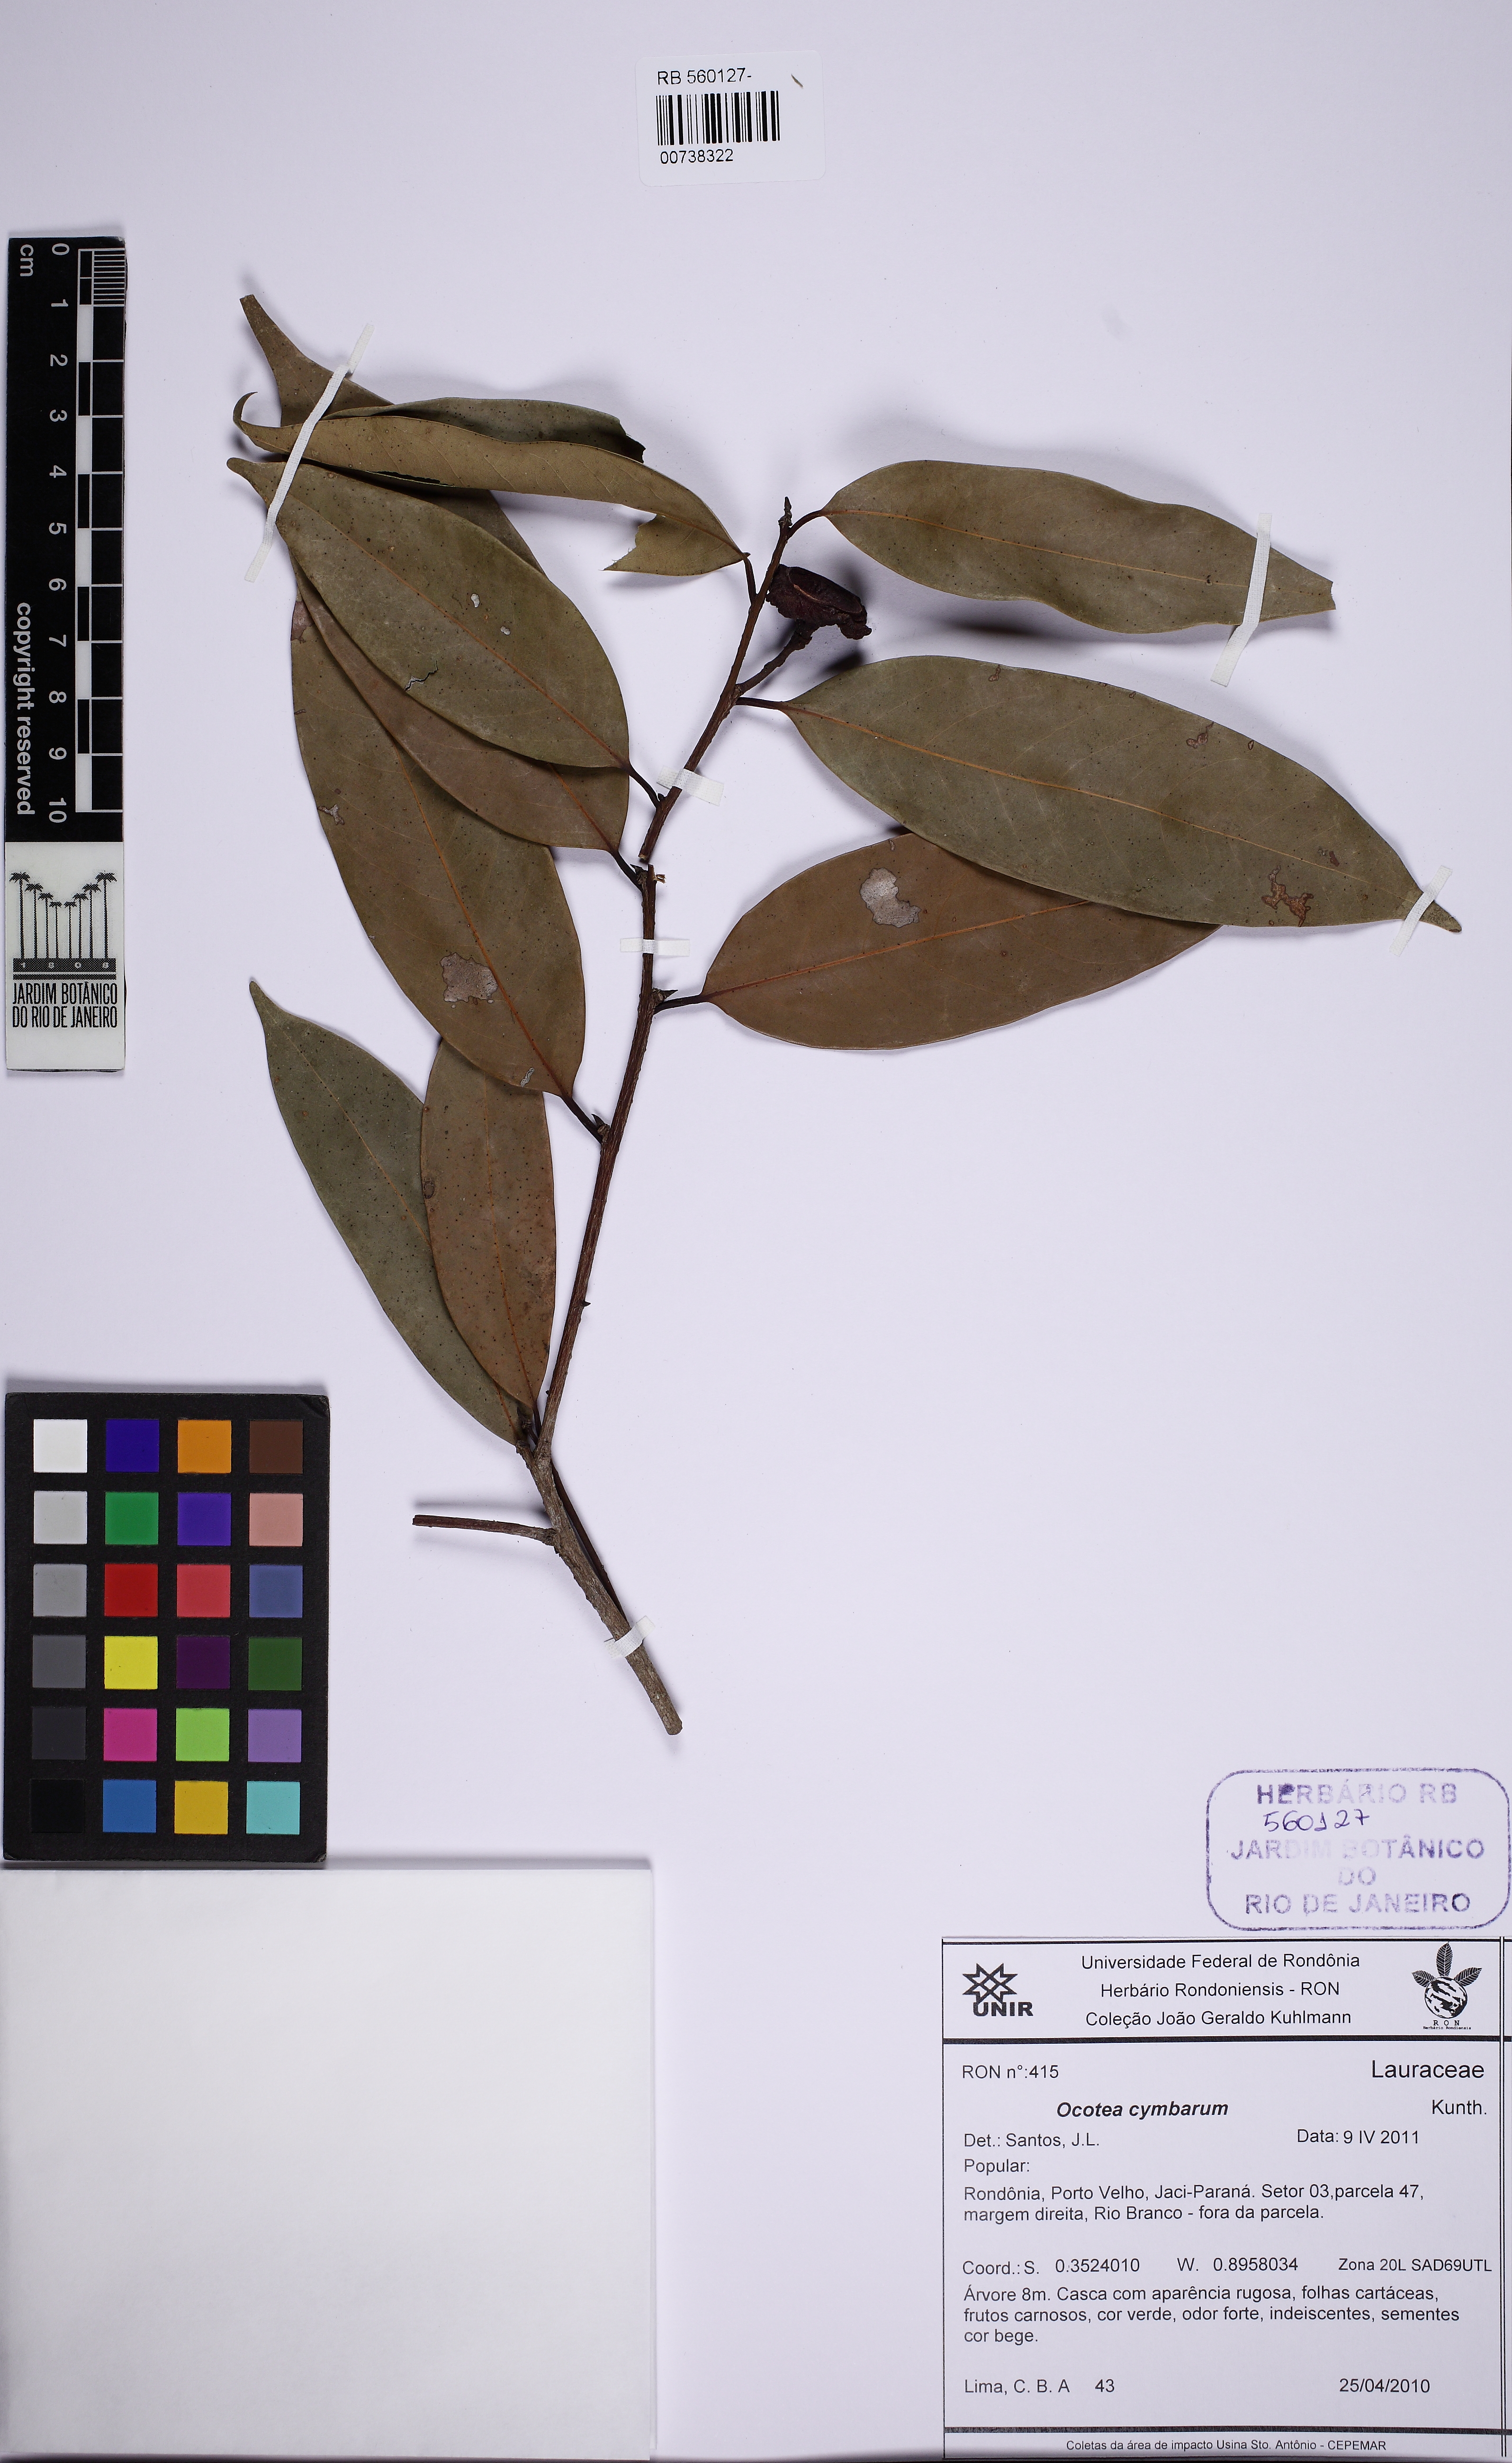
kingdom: Plantae
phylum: Tracheophyta
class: Magnoliopsida
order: Laurales
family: Lauraceae
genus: Mespilodaphne
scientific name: Mespilodaphne cymbarum
